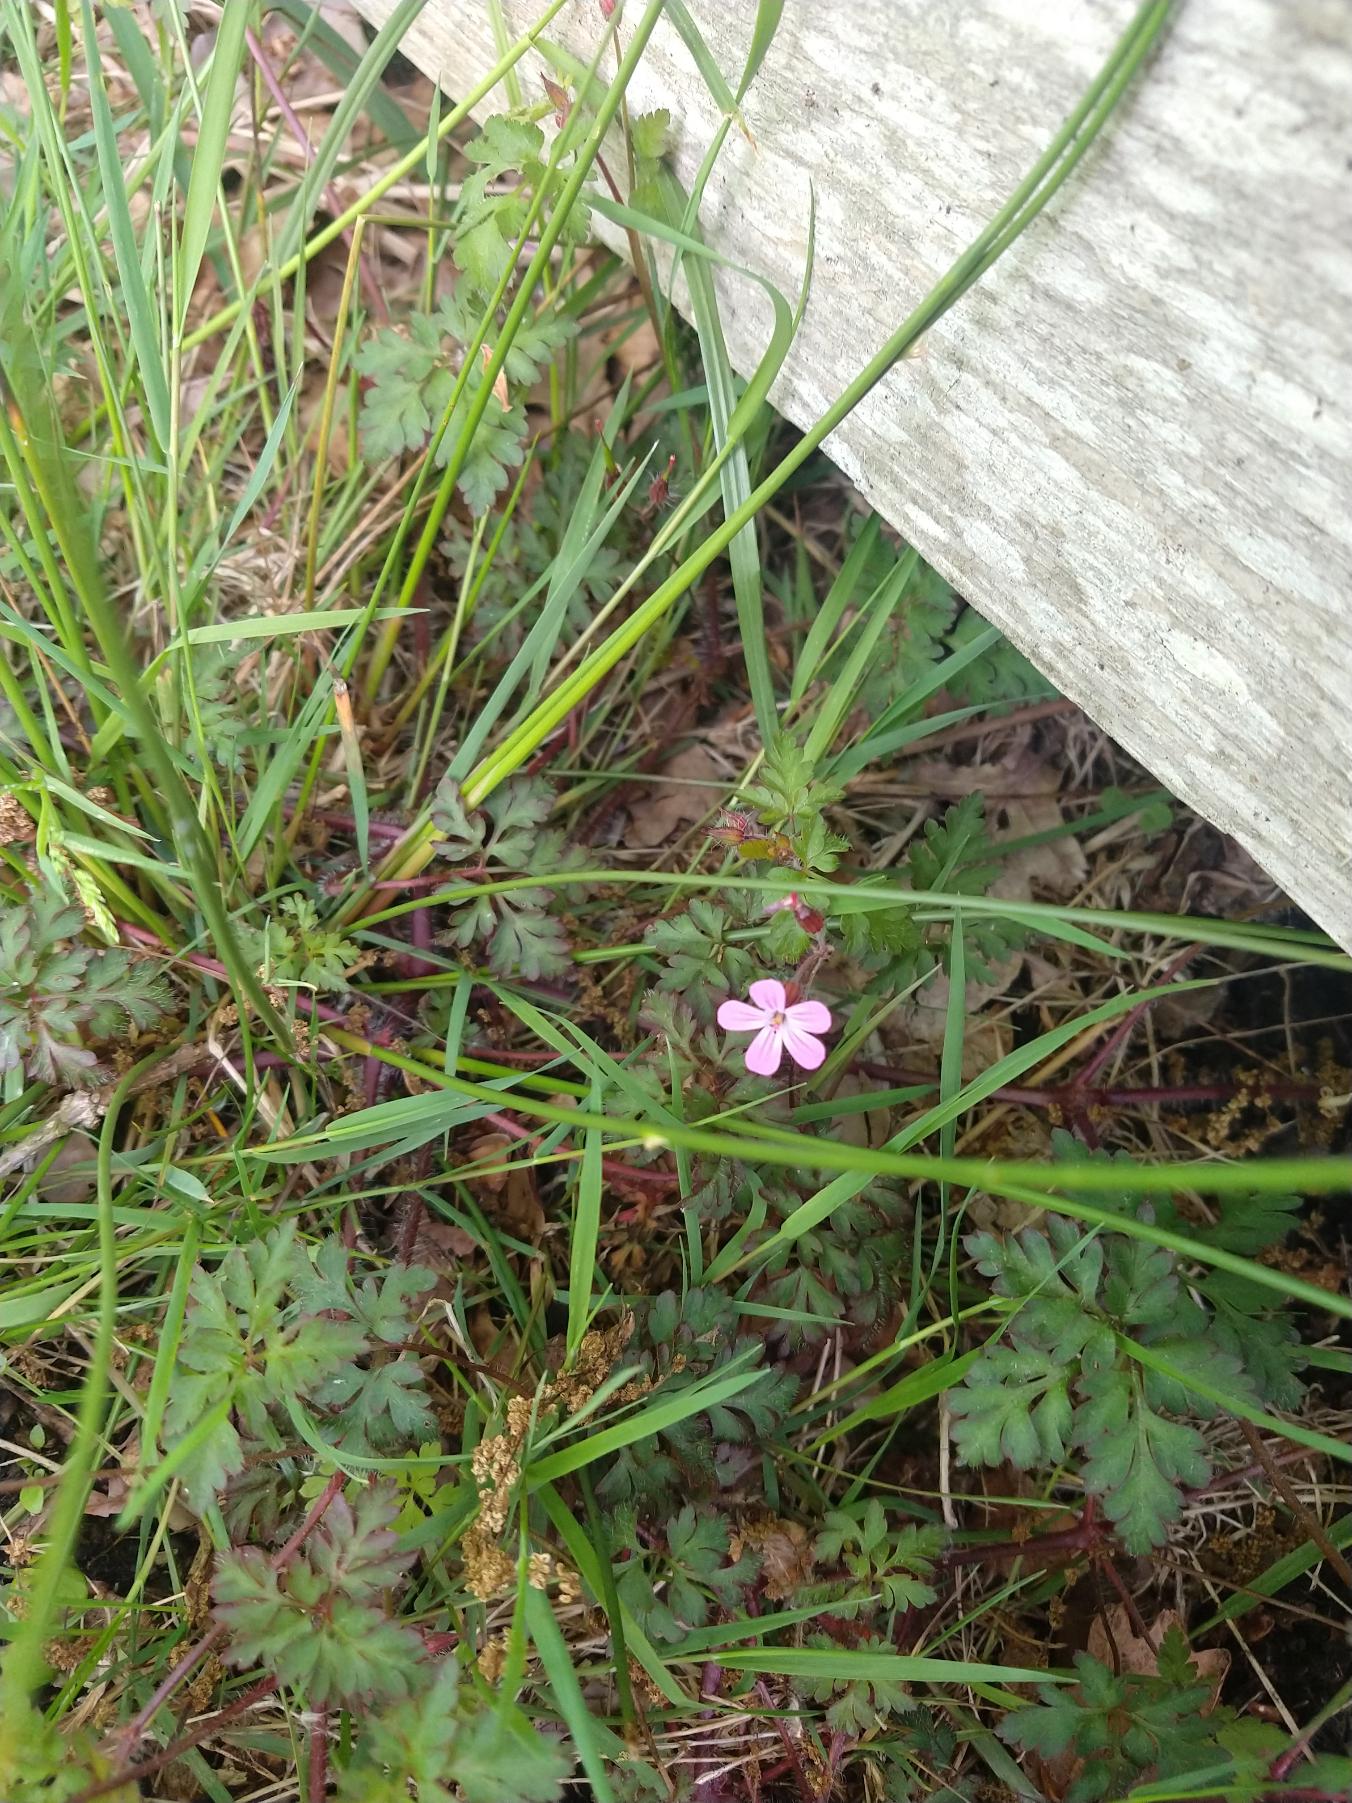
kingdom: Plantae
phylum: Tracheophyta
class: Magnoliopsida
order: Geraniales
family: Geraniaceae
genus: Geranium
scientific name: Geranium robertianum
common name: Stinkende storkenæb
